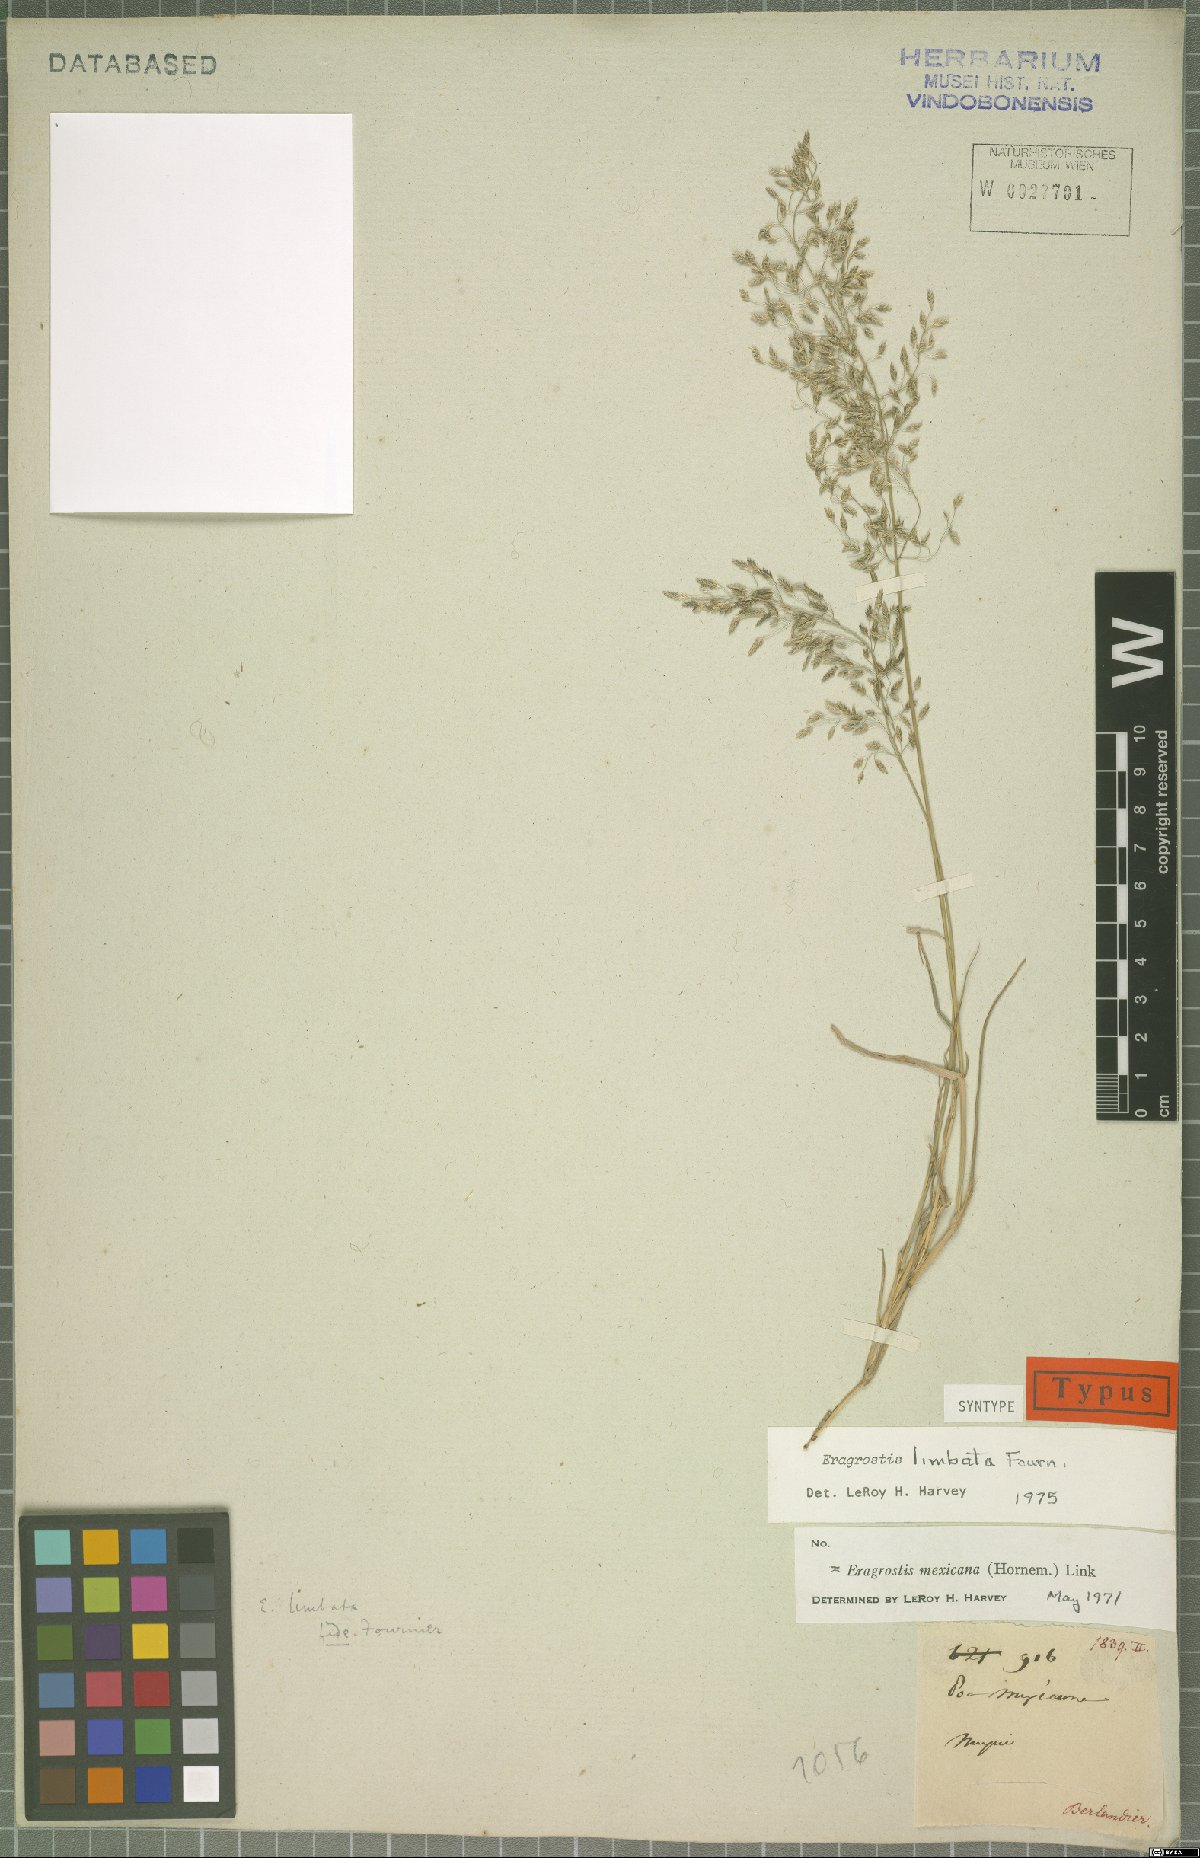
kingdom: Plantae
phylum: Tracheophyta
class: Liliopsida
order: Poales
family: Poaceae
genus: Eragrostis
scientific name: Eragrostis mexicana
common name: Mexican love grass
